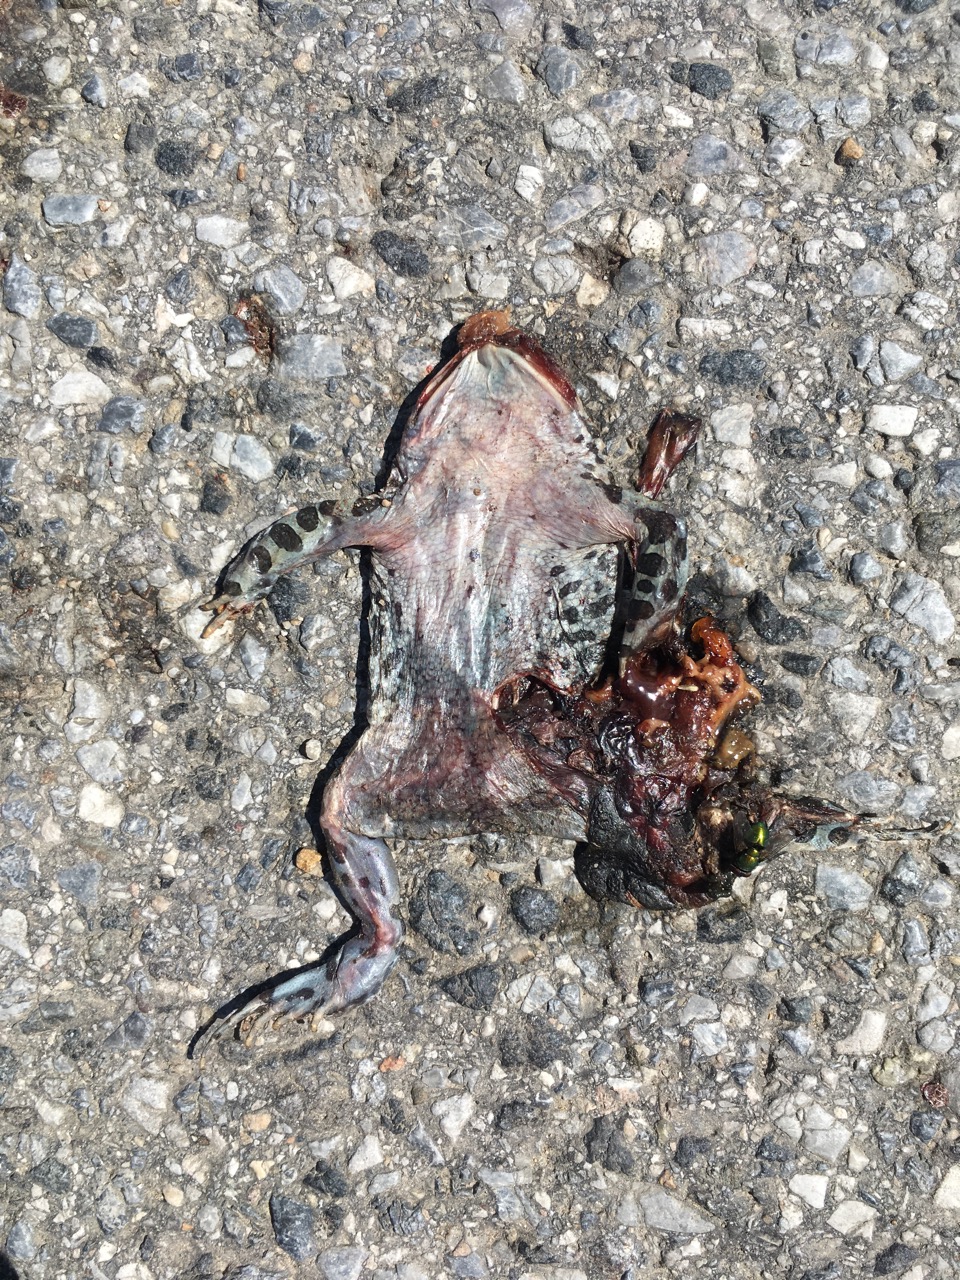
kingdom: Animalia
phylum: Chordata
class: Amphibia
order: Anura
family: Bufonidae
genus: Bufotes
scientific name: Bufotes viridis
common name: European green toad
